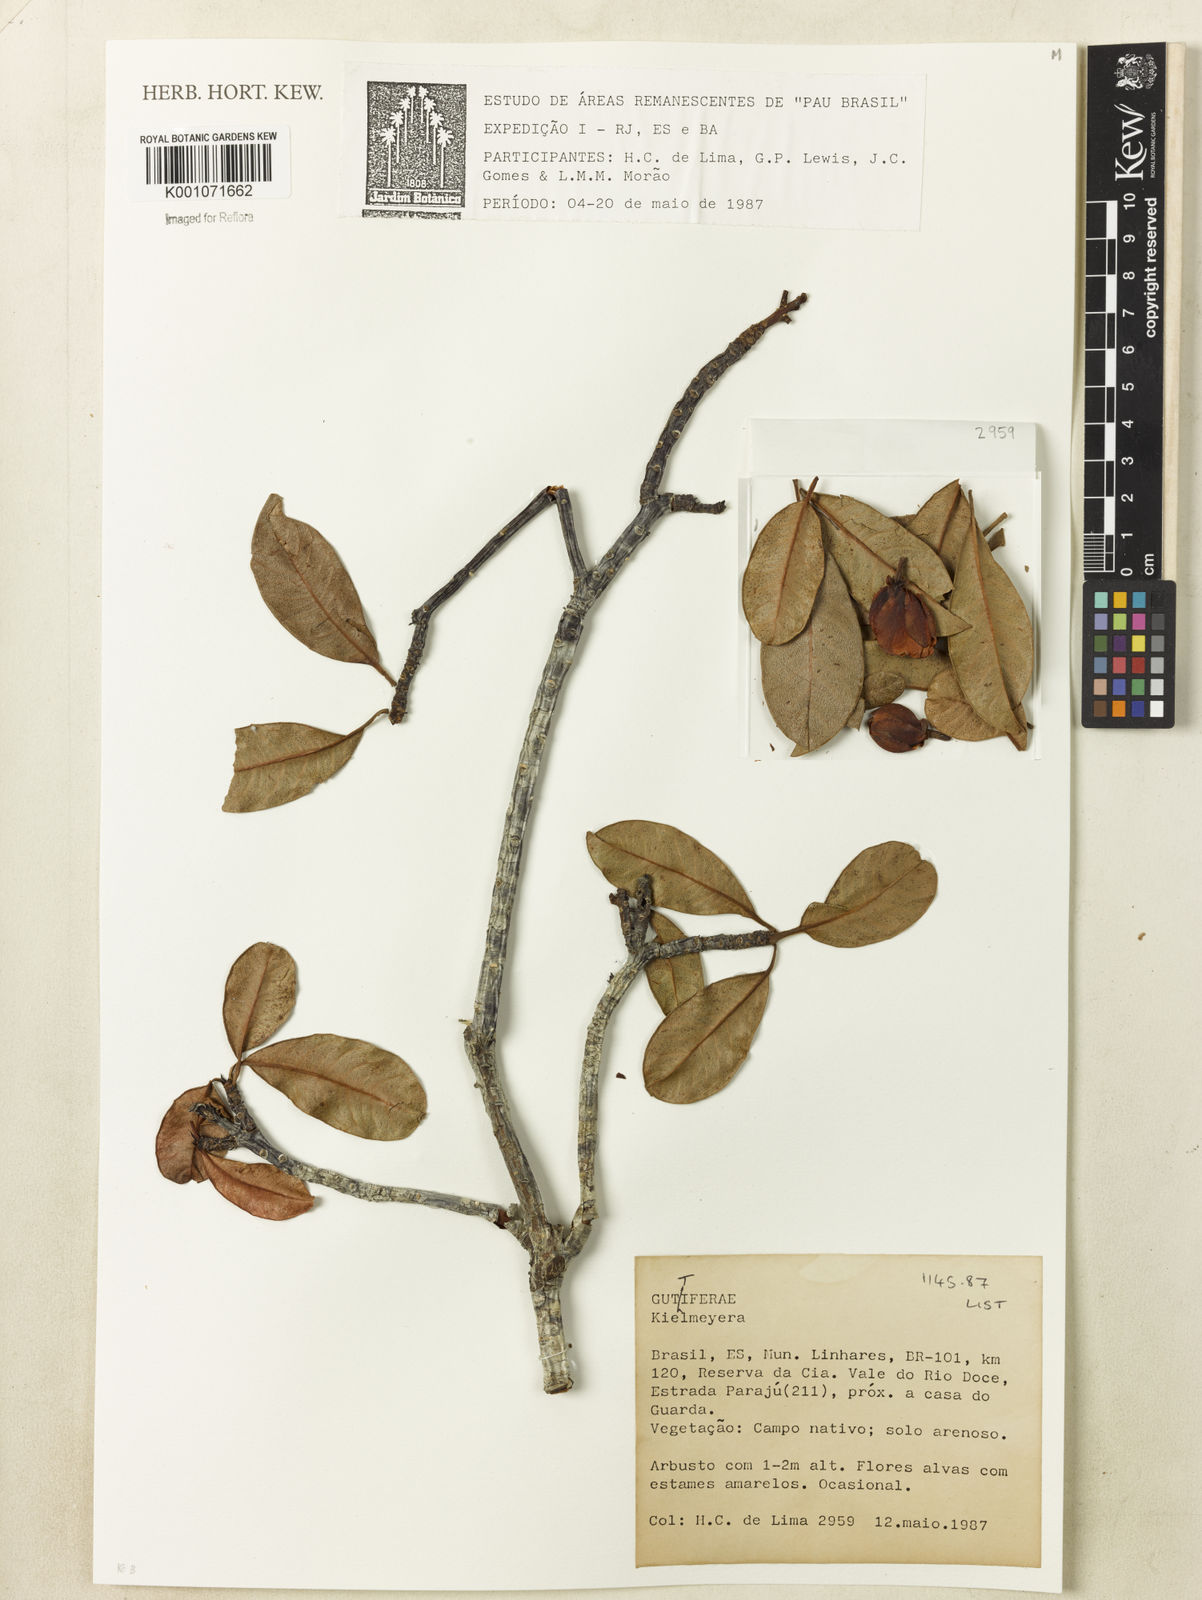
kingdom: Plantae
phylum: Tracheophyta
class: Magnoliopsida
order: Malpighiales
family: Calophyllaceae
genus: Kielmeyera
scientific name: Kielmeyera membranacea
